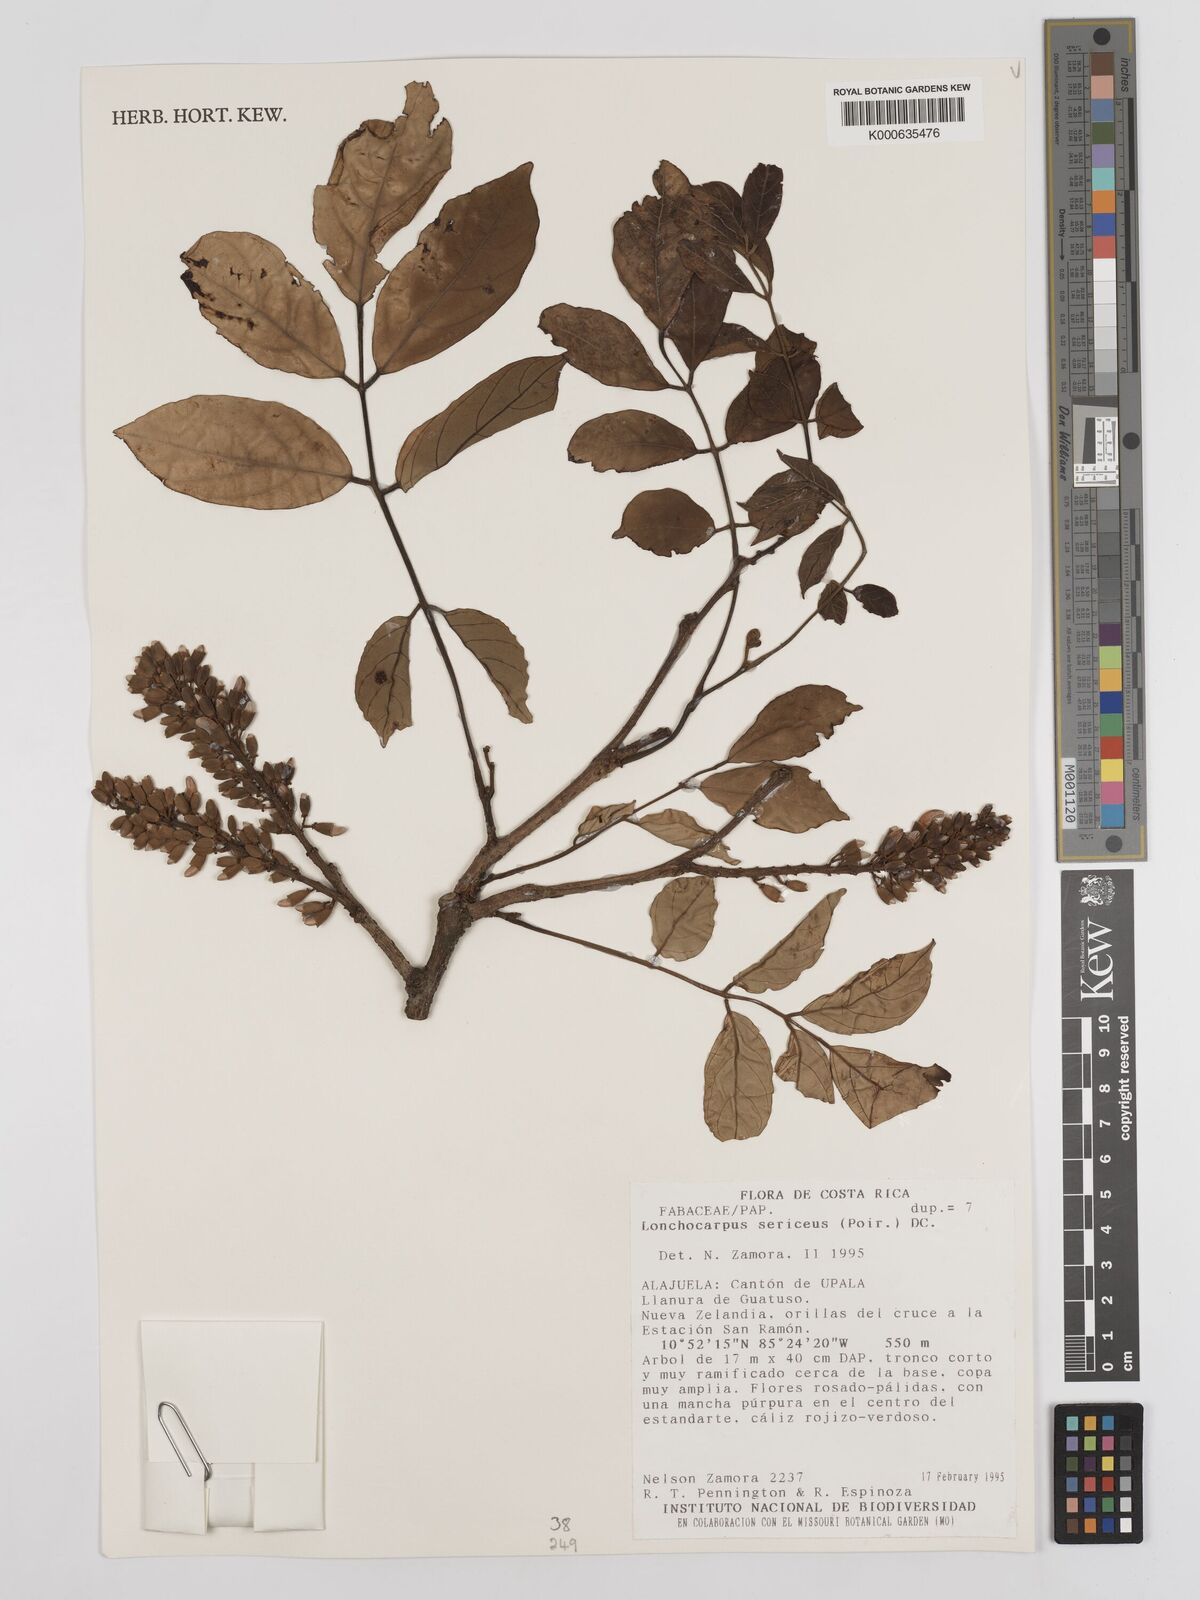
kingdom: Plantae
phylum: Tracheophyta
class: Magnoliopsida
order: Fabales
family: Fabaceae
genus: Lonchocarpus
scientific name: Lonchocarpus sericeus
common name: Savonette
